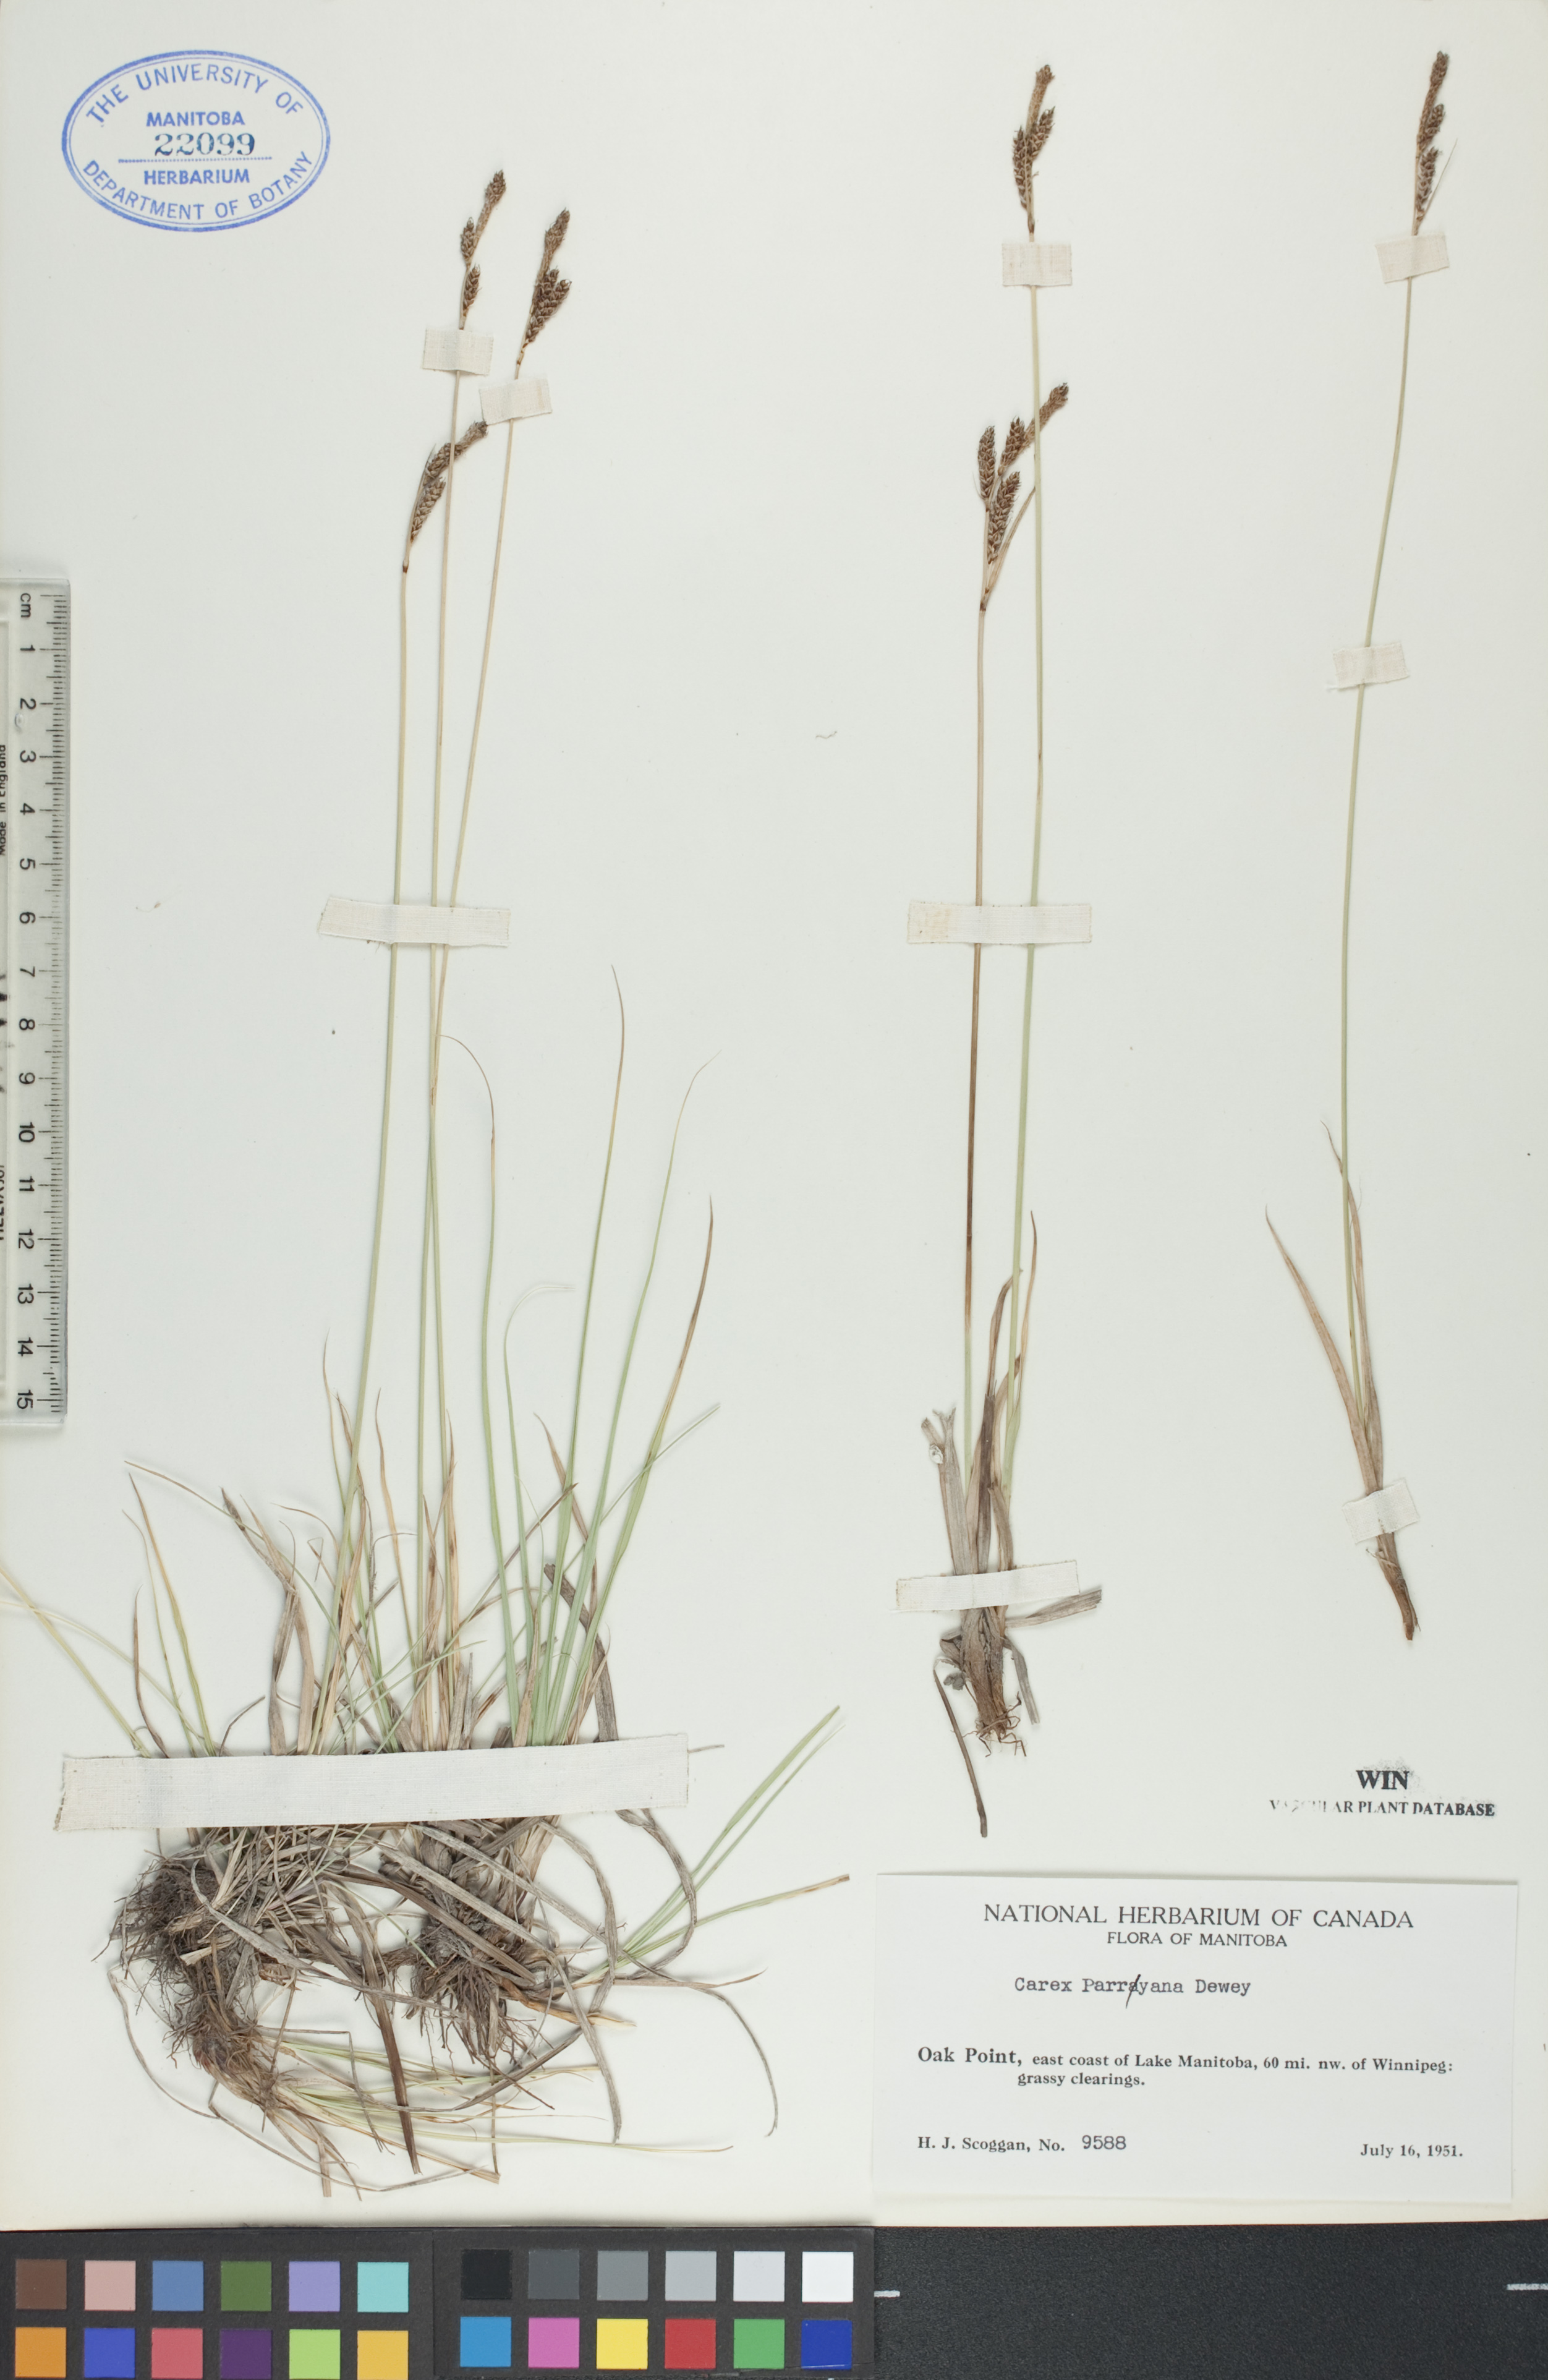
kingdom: Plantae
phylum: Tracheophyta
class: Liliopsida
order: Poales
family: Cyperaceae
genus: Carex
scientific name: Carex parryana
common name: Parry's sedge
